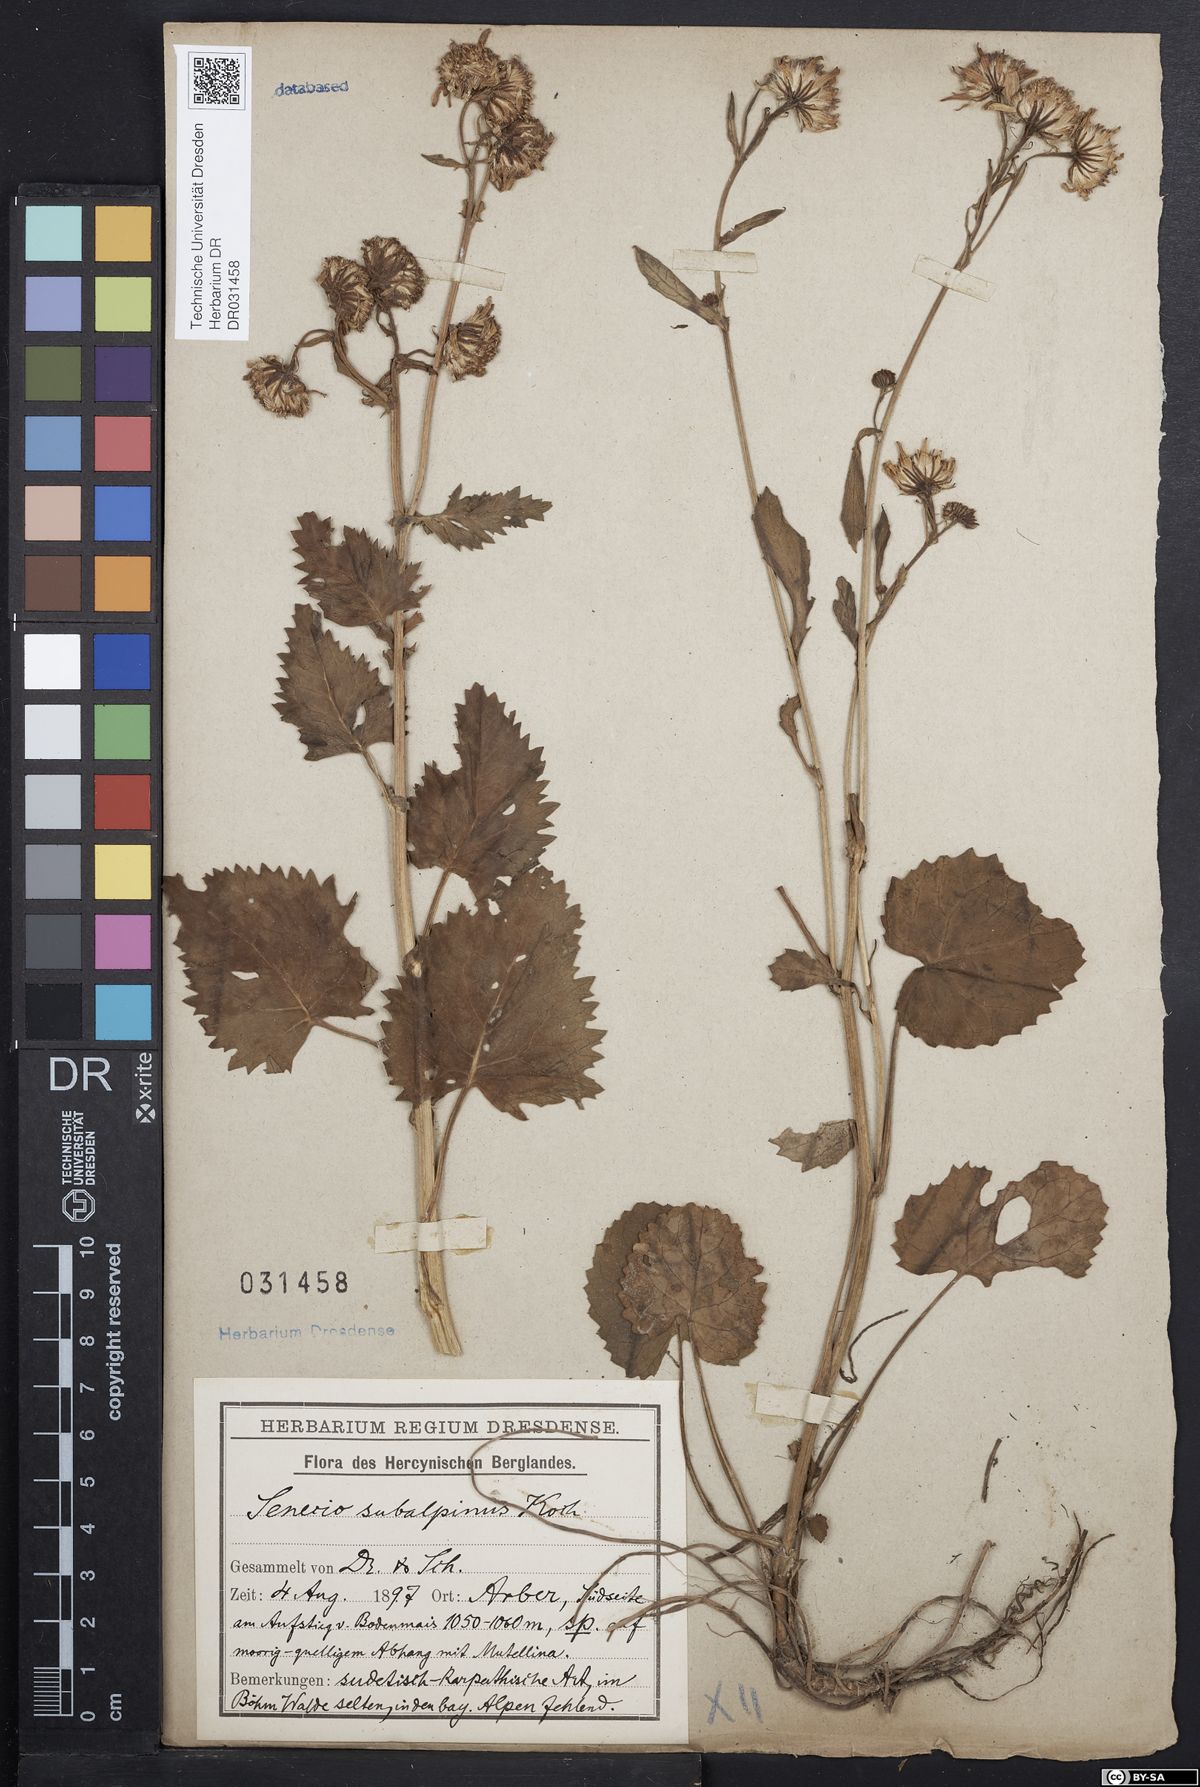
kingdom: Plantae
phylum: Tracheophyta
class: Magnoliopsida
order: Asterales
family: Asteraceae
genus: Jacobaea
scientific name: Jacobaea subalpina
